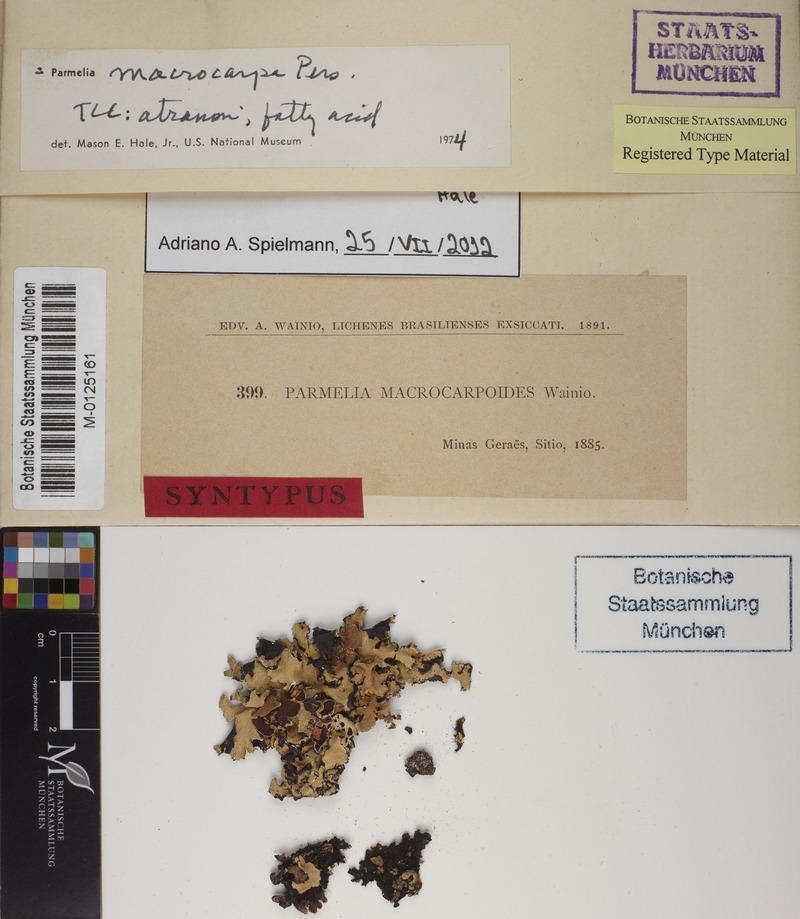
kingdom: Fungi
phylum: Ascomycota
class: Lecanoromycetes
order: Lecanorales
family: Parmeliaceae
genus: Parmotrema
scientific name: Parmotrema macrocarpum
